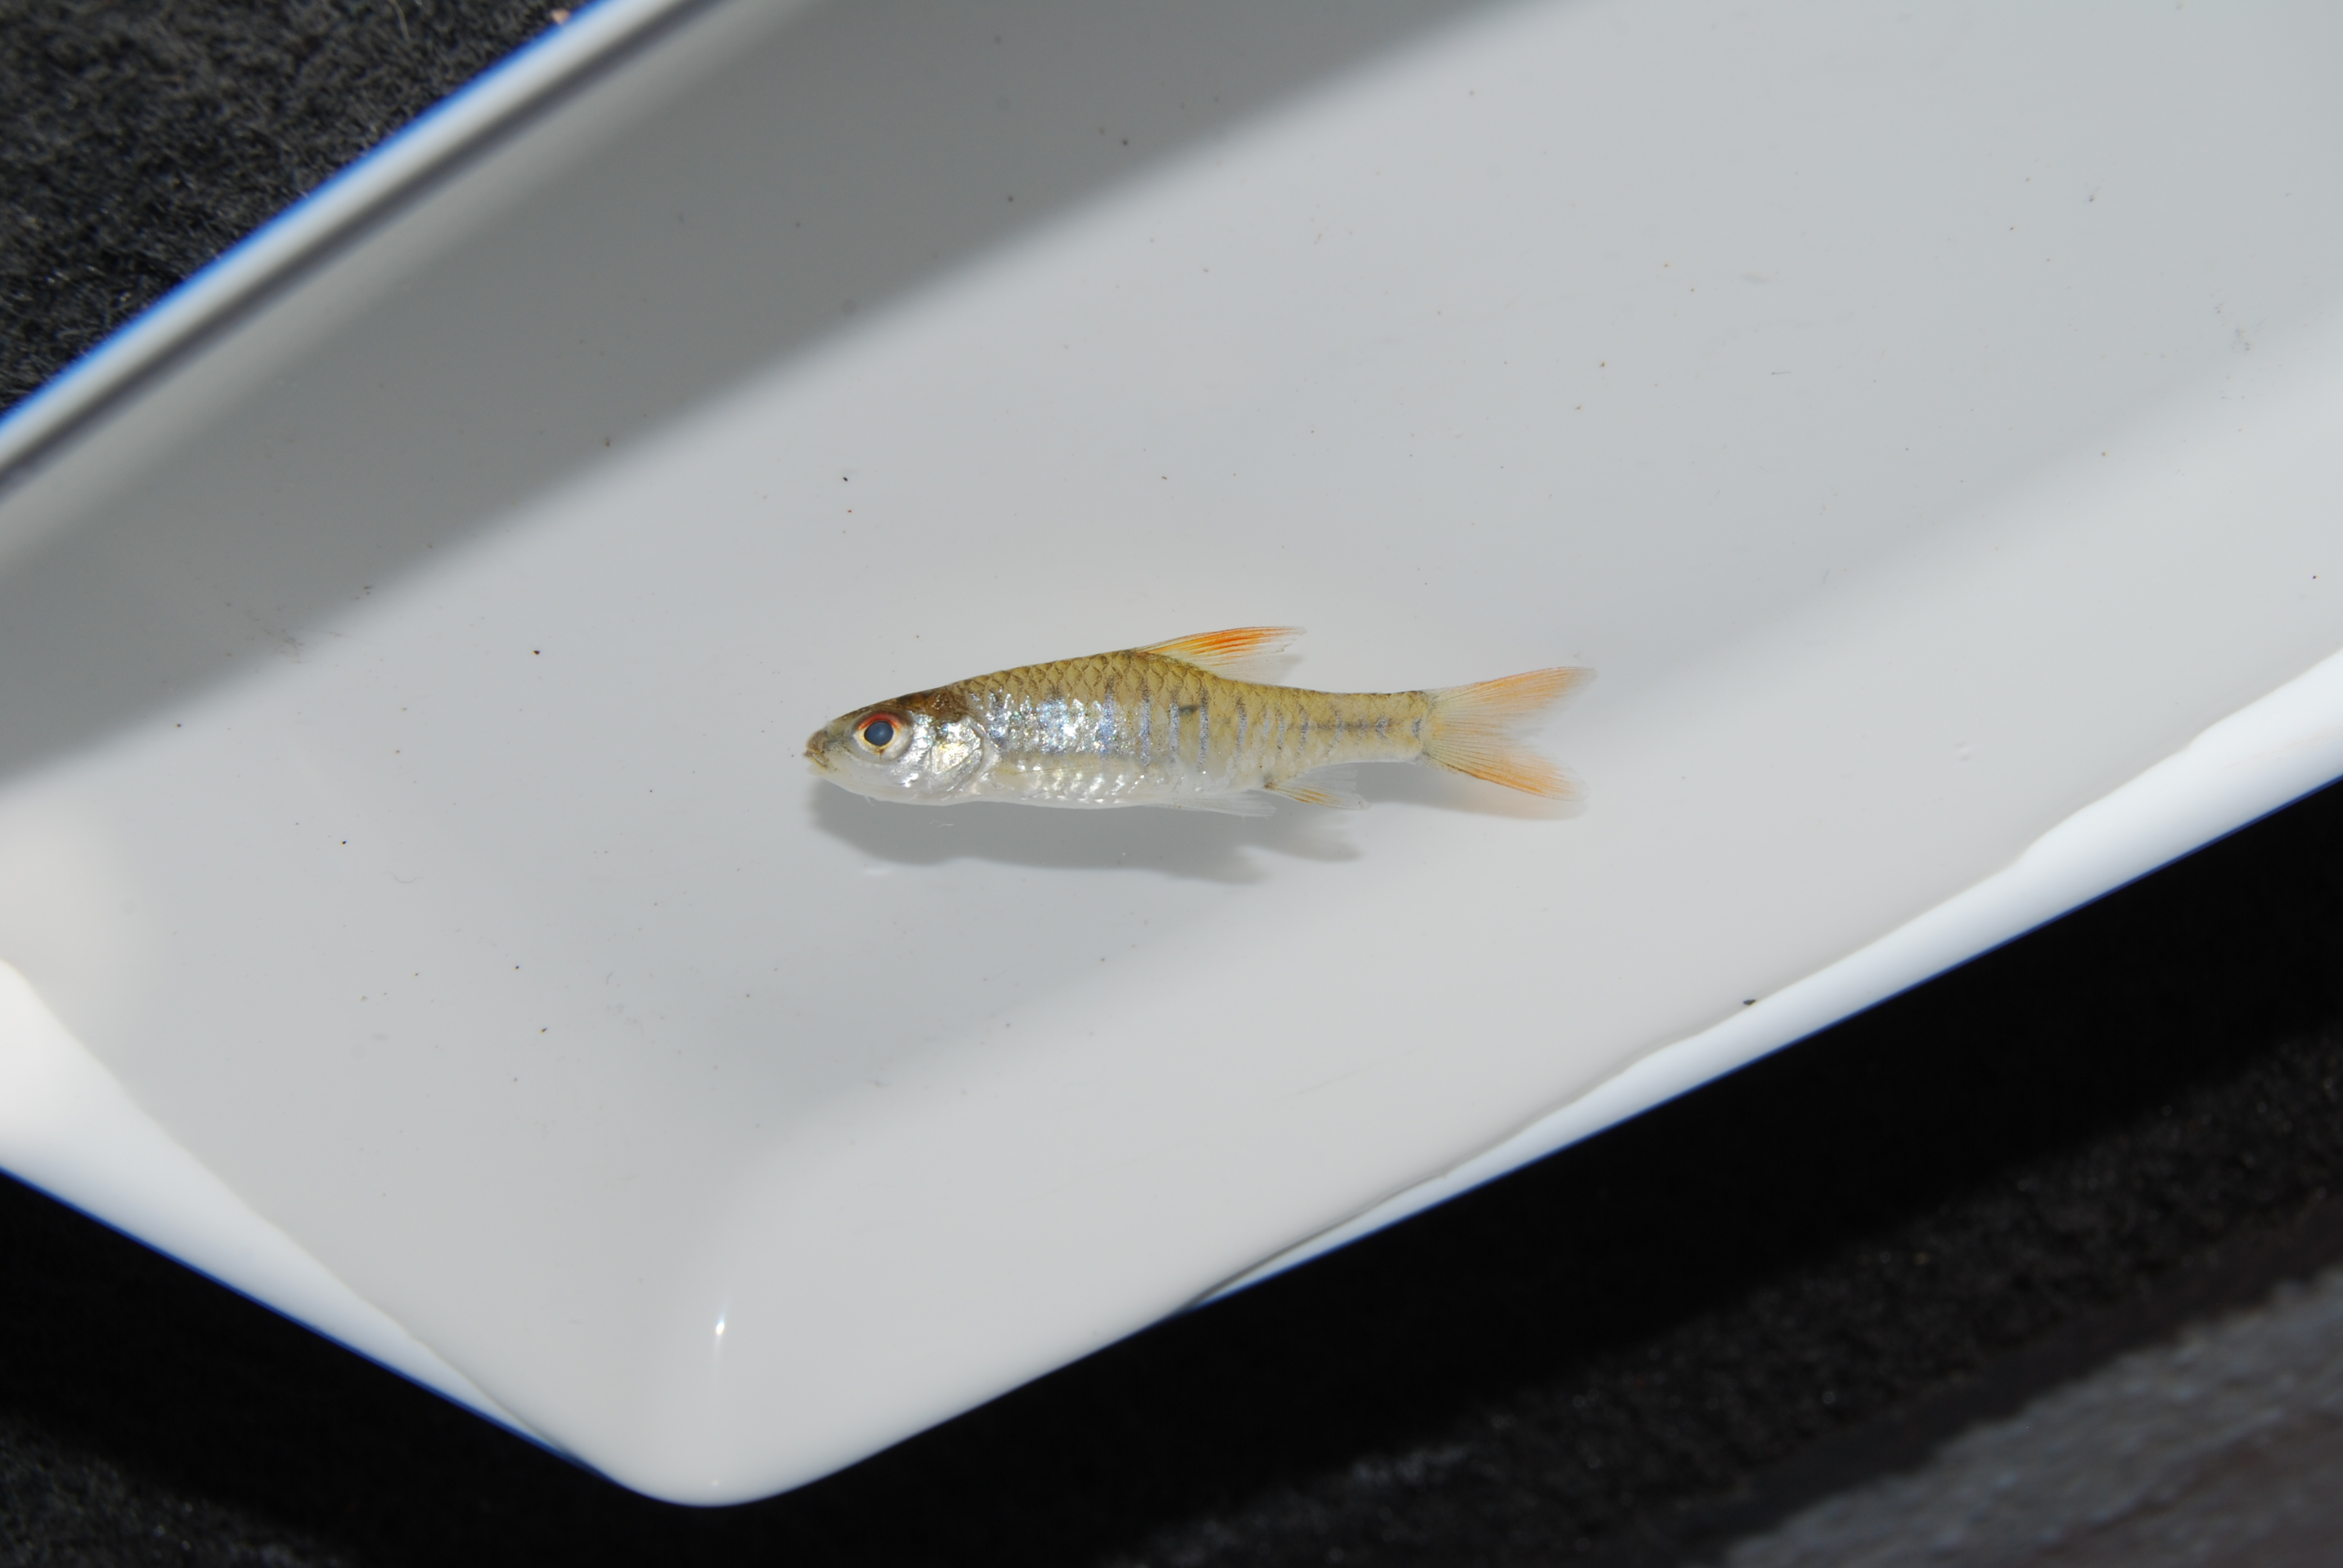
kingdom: Animalia
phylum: Chordata
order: Cypriniformes
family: Cyprinidae
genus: Enteromius
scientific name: Enteromius fasciolatus
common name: Red barb
